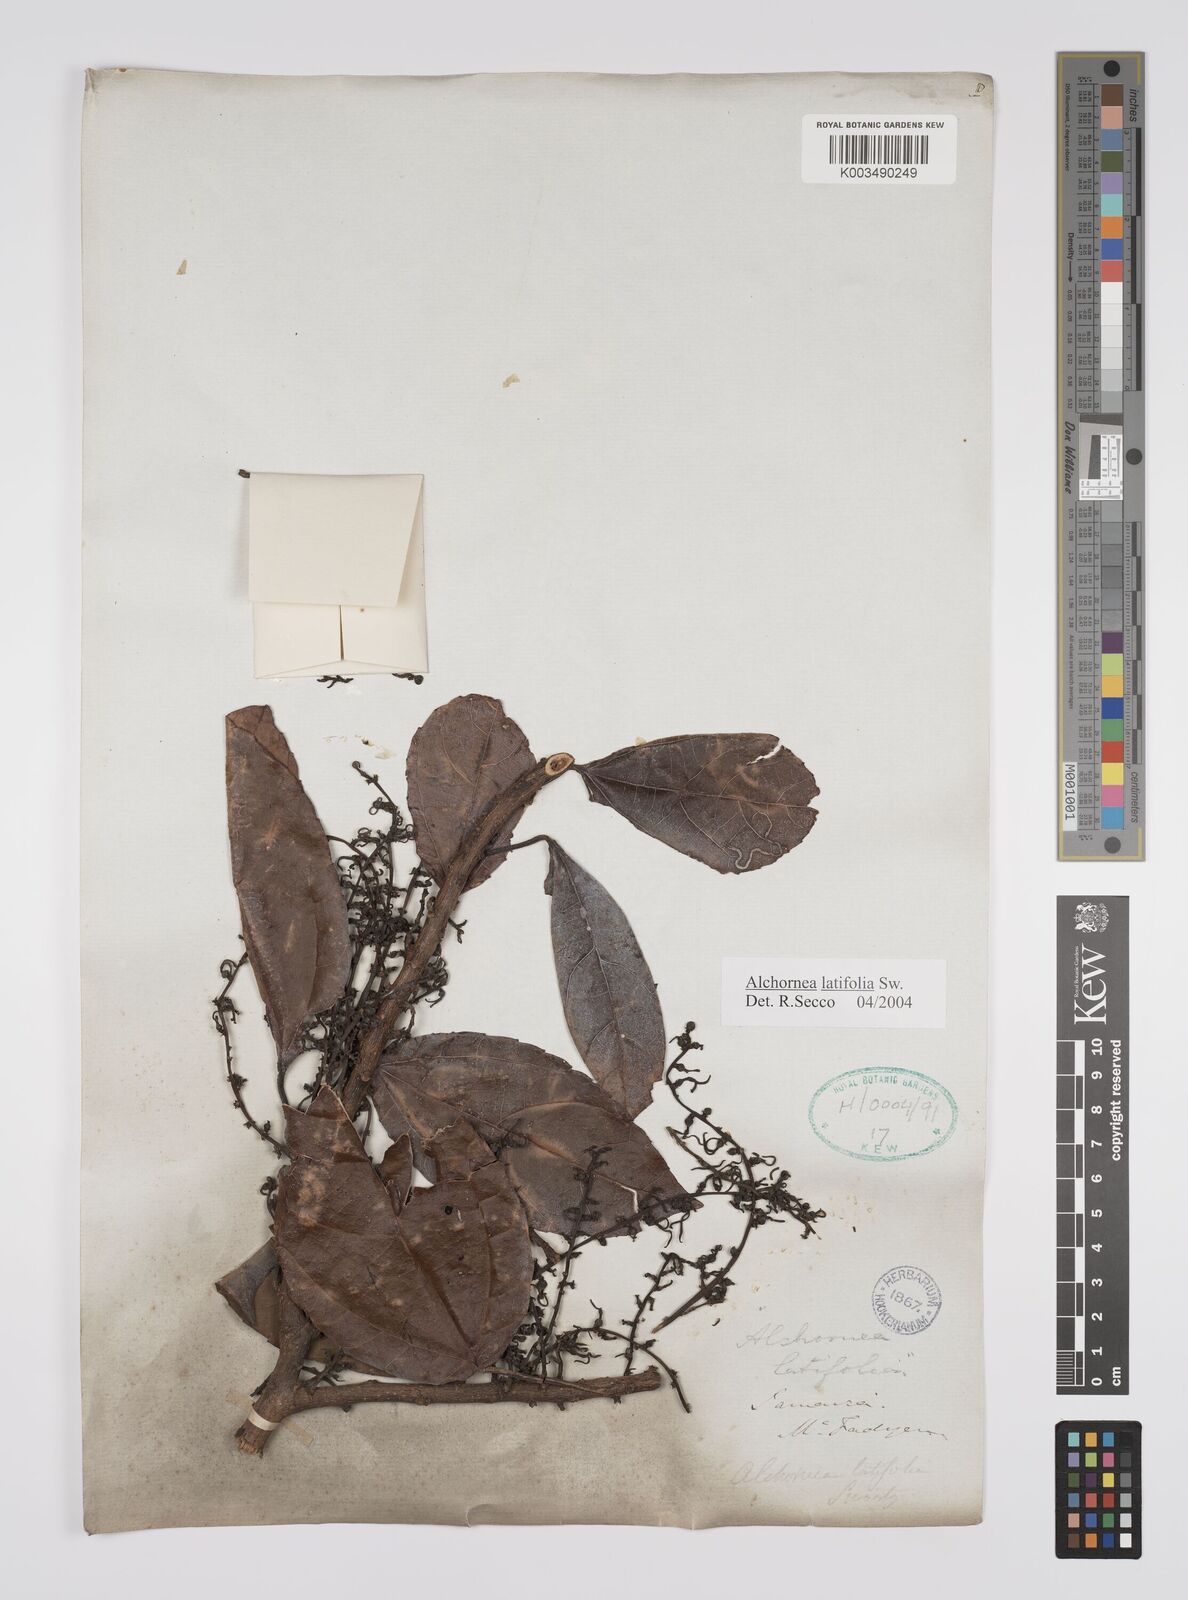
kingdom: Plantae
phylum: Tracheophyta
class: Magnoliopsida
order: Malpighiales
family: Euphorbiaceae
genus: Alchornea
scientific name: Alchornea latifolia
